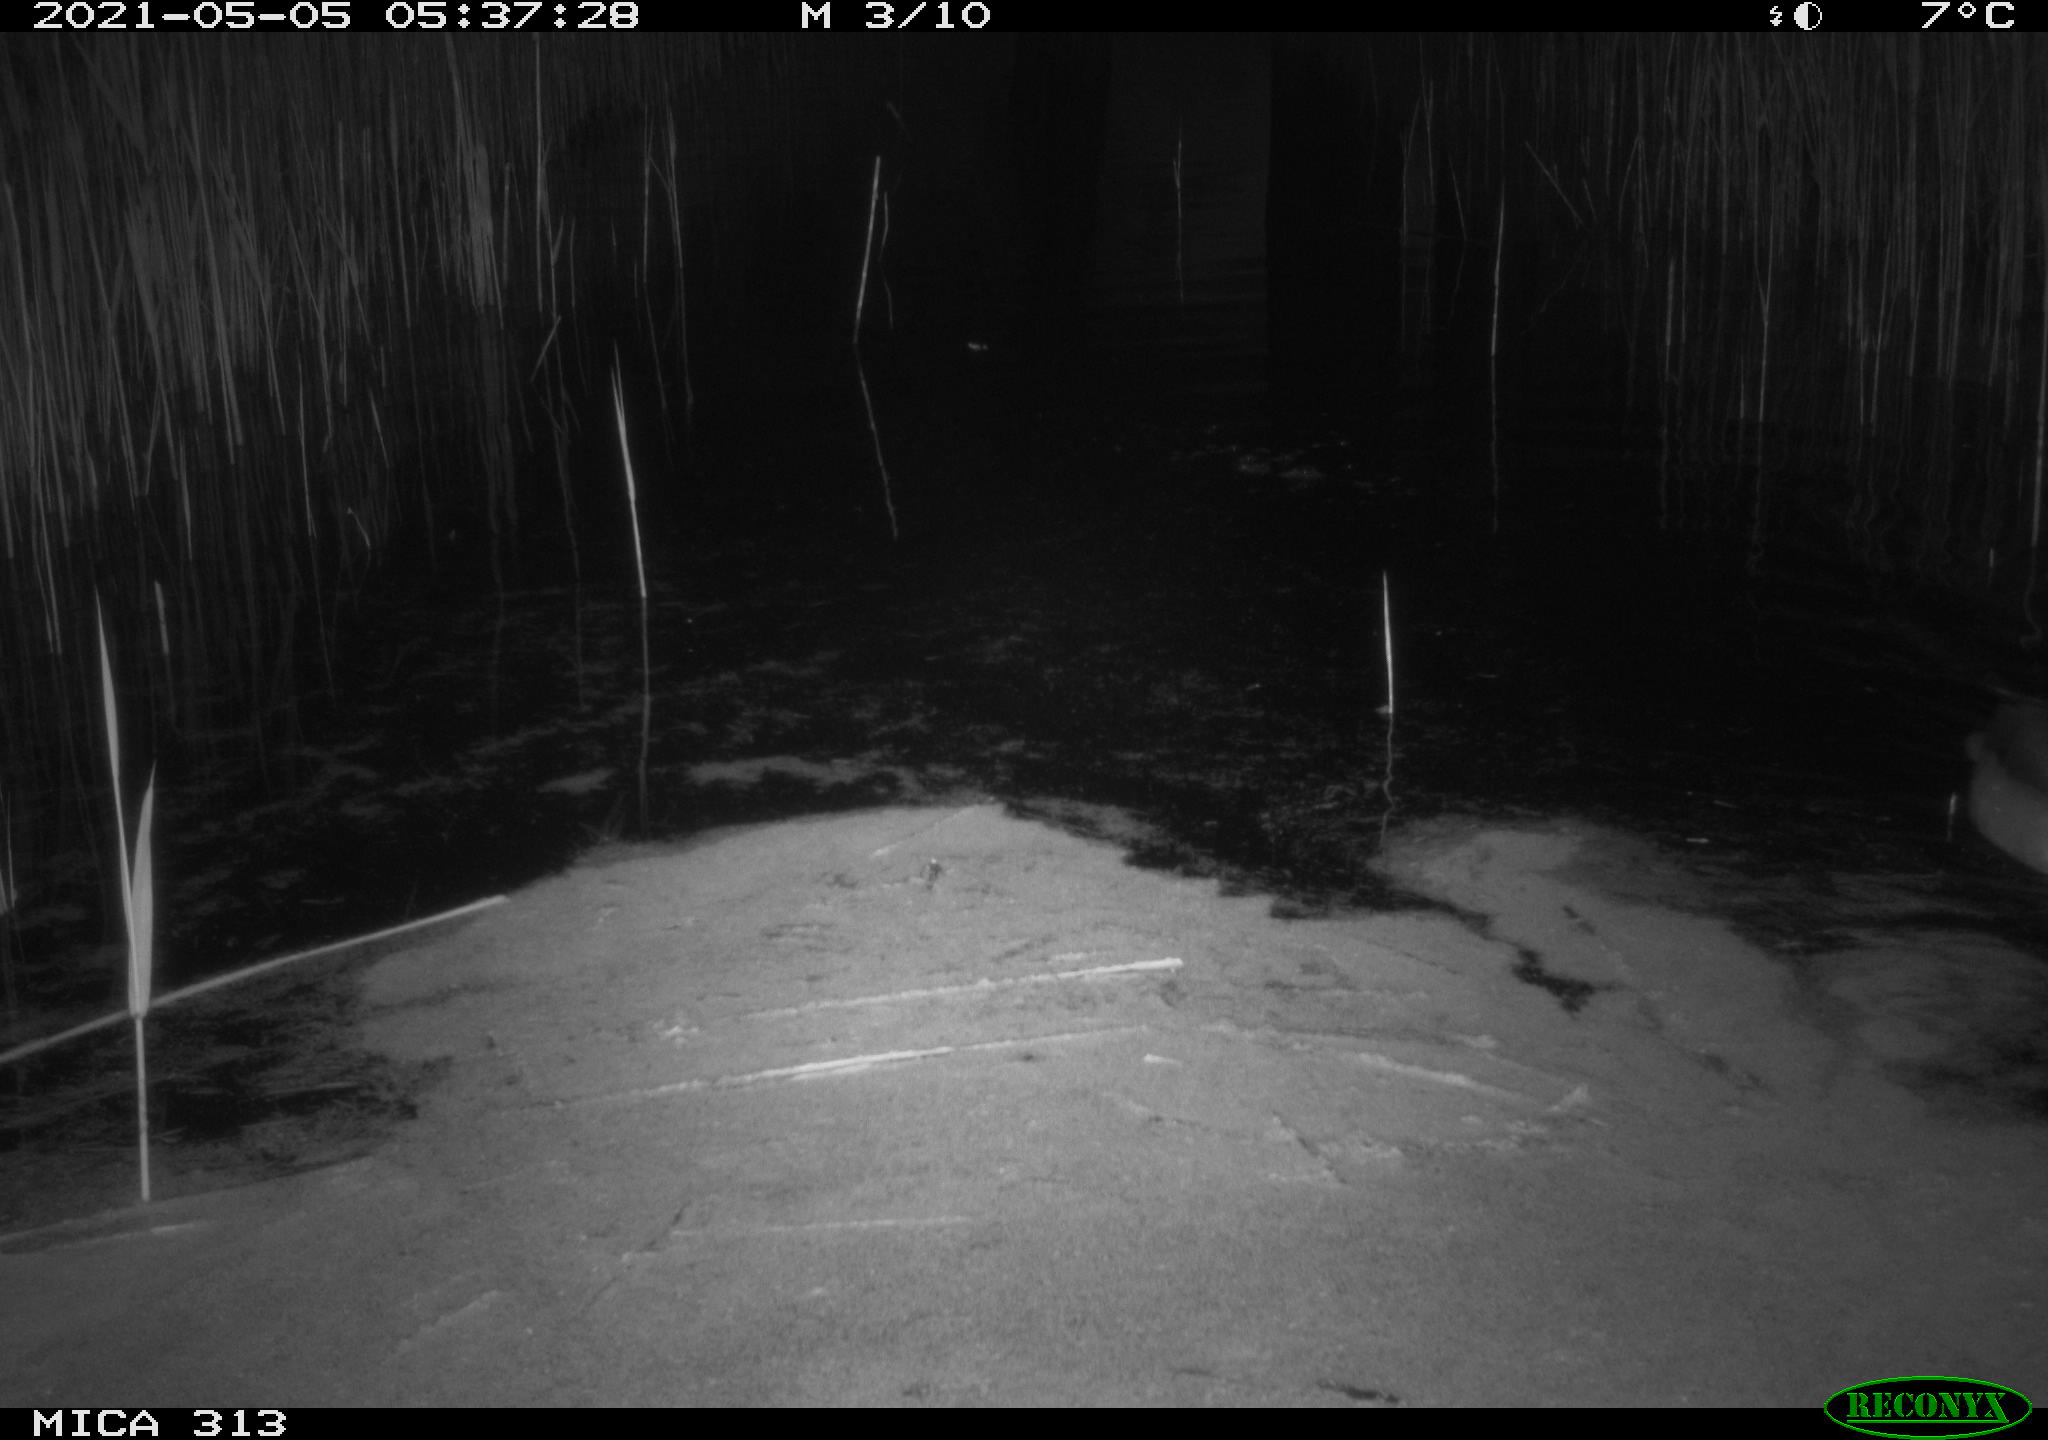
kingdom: Animalia
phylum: Chordata
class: Aves
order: Anseriformes
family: Anatidae
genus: Anas
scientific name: Anas platyrhynchos
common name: Mallard
